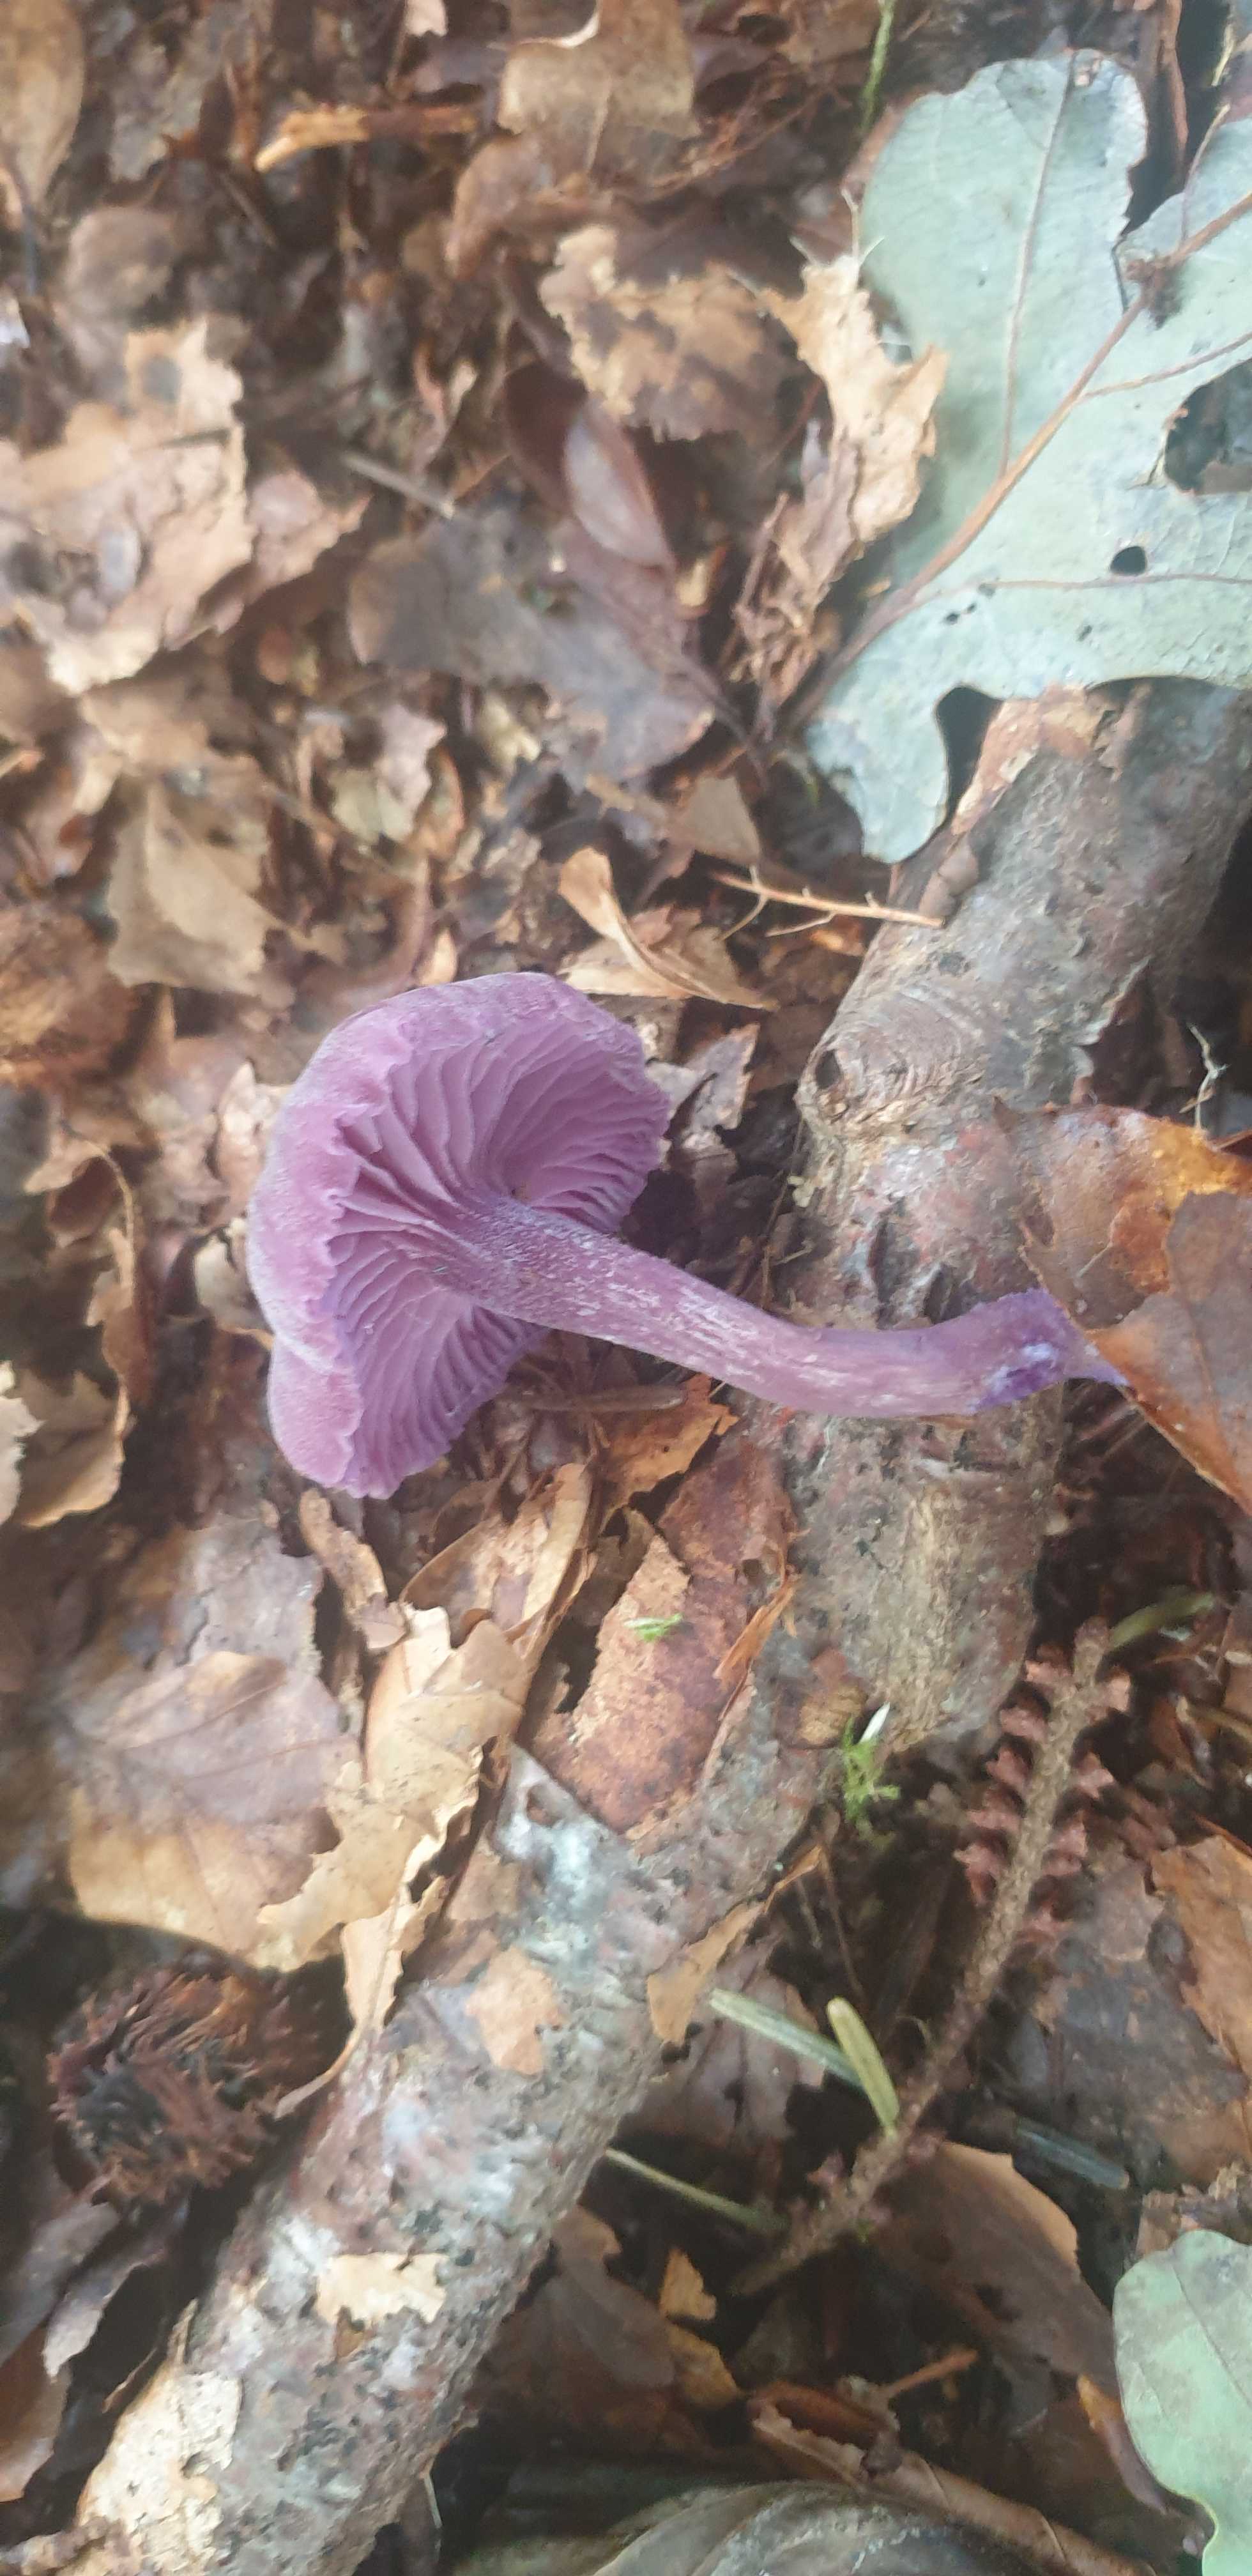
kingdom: Fungi
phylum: Basidiomycota
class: Agaricomycetes
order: Agaricales
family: Hydnangiaceae
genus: Laccaria
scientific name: Laccaria amethystina
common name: violet ametysthat
